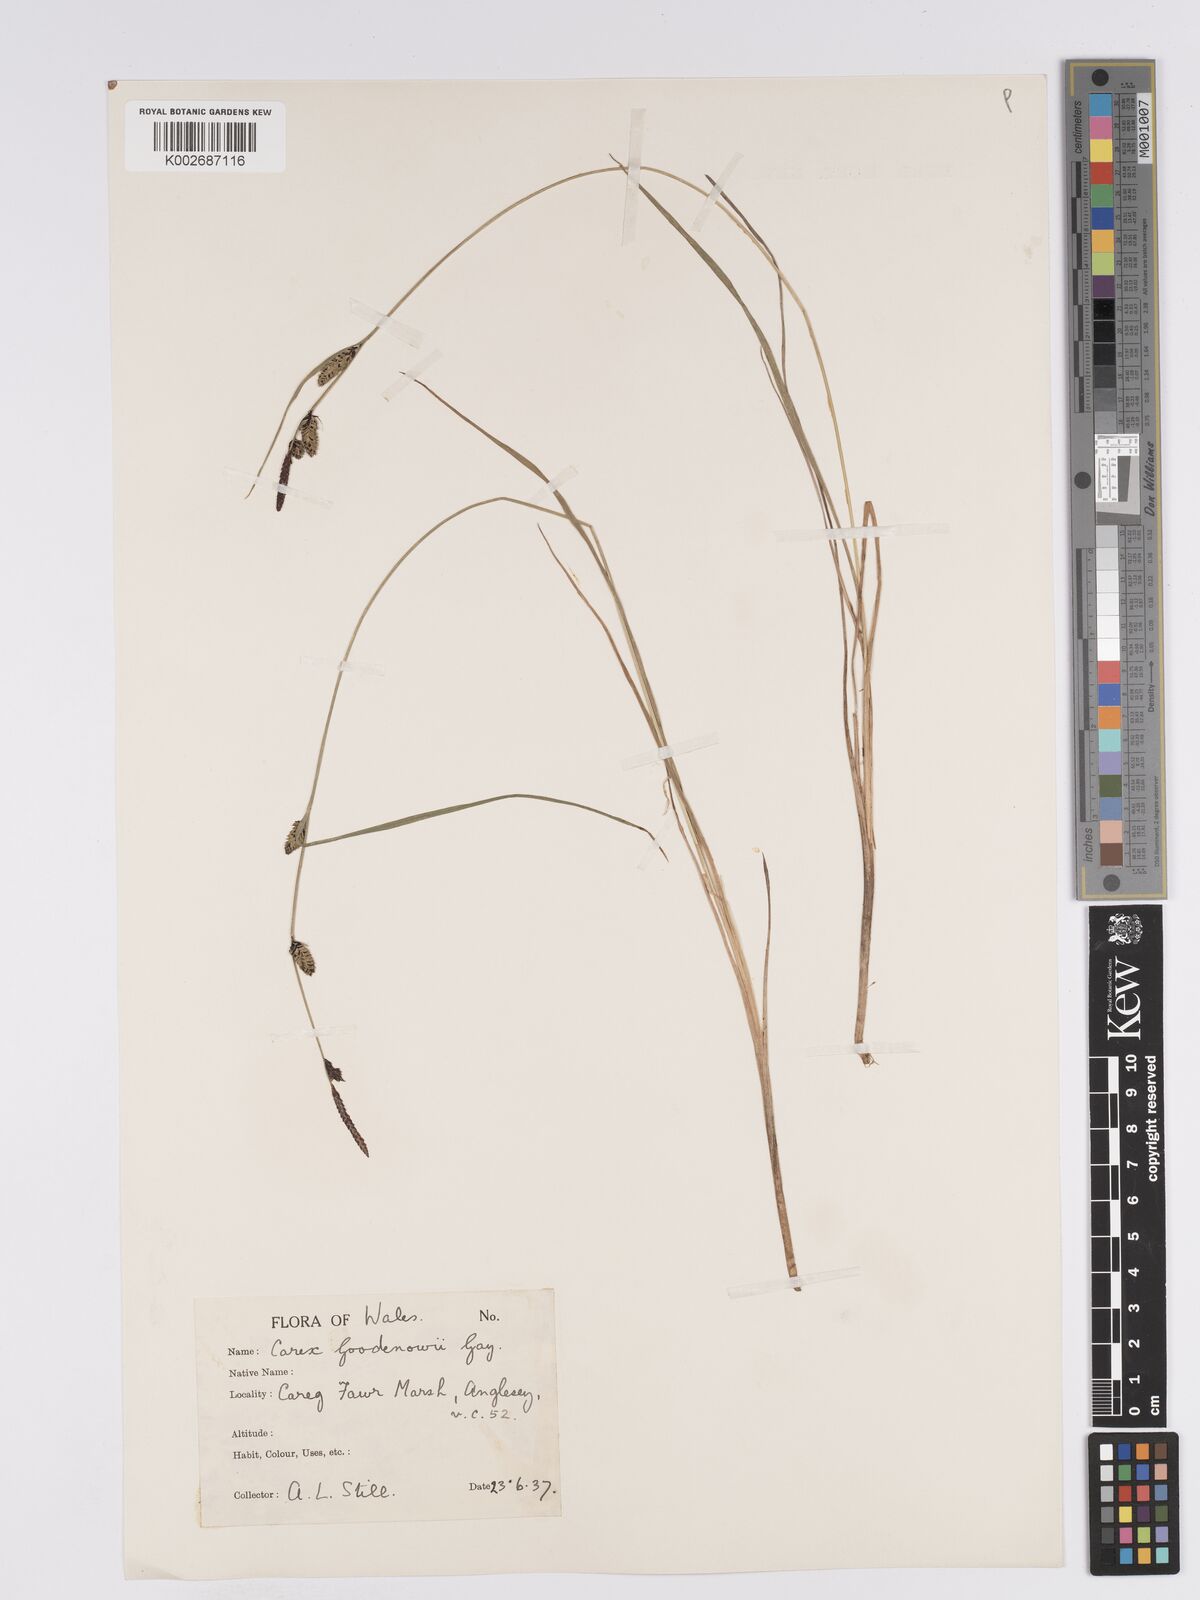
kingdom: Plantae
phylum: Tracheophyta
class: Liliopsida
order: Poales
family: Cyperaceae
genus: Carex
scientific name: Carex nigra
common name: Common sedge
